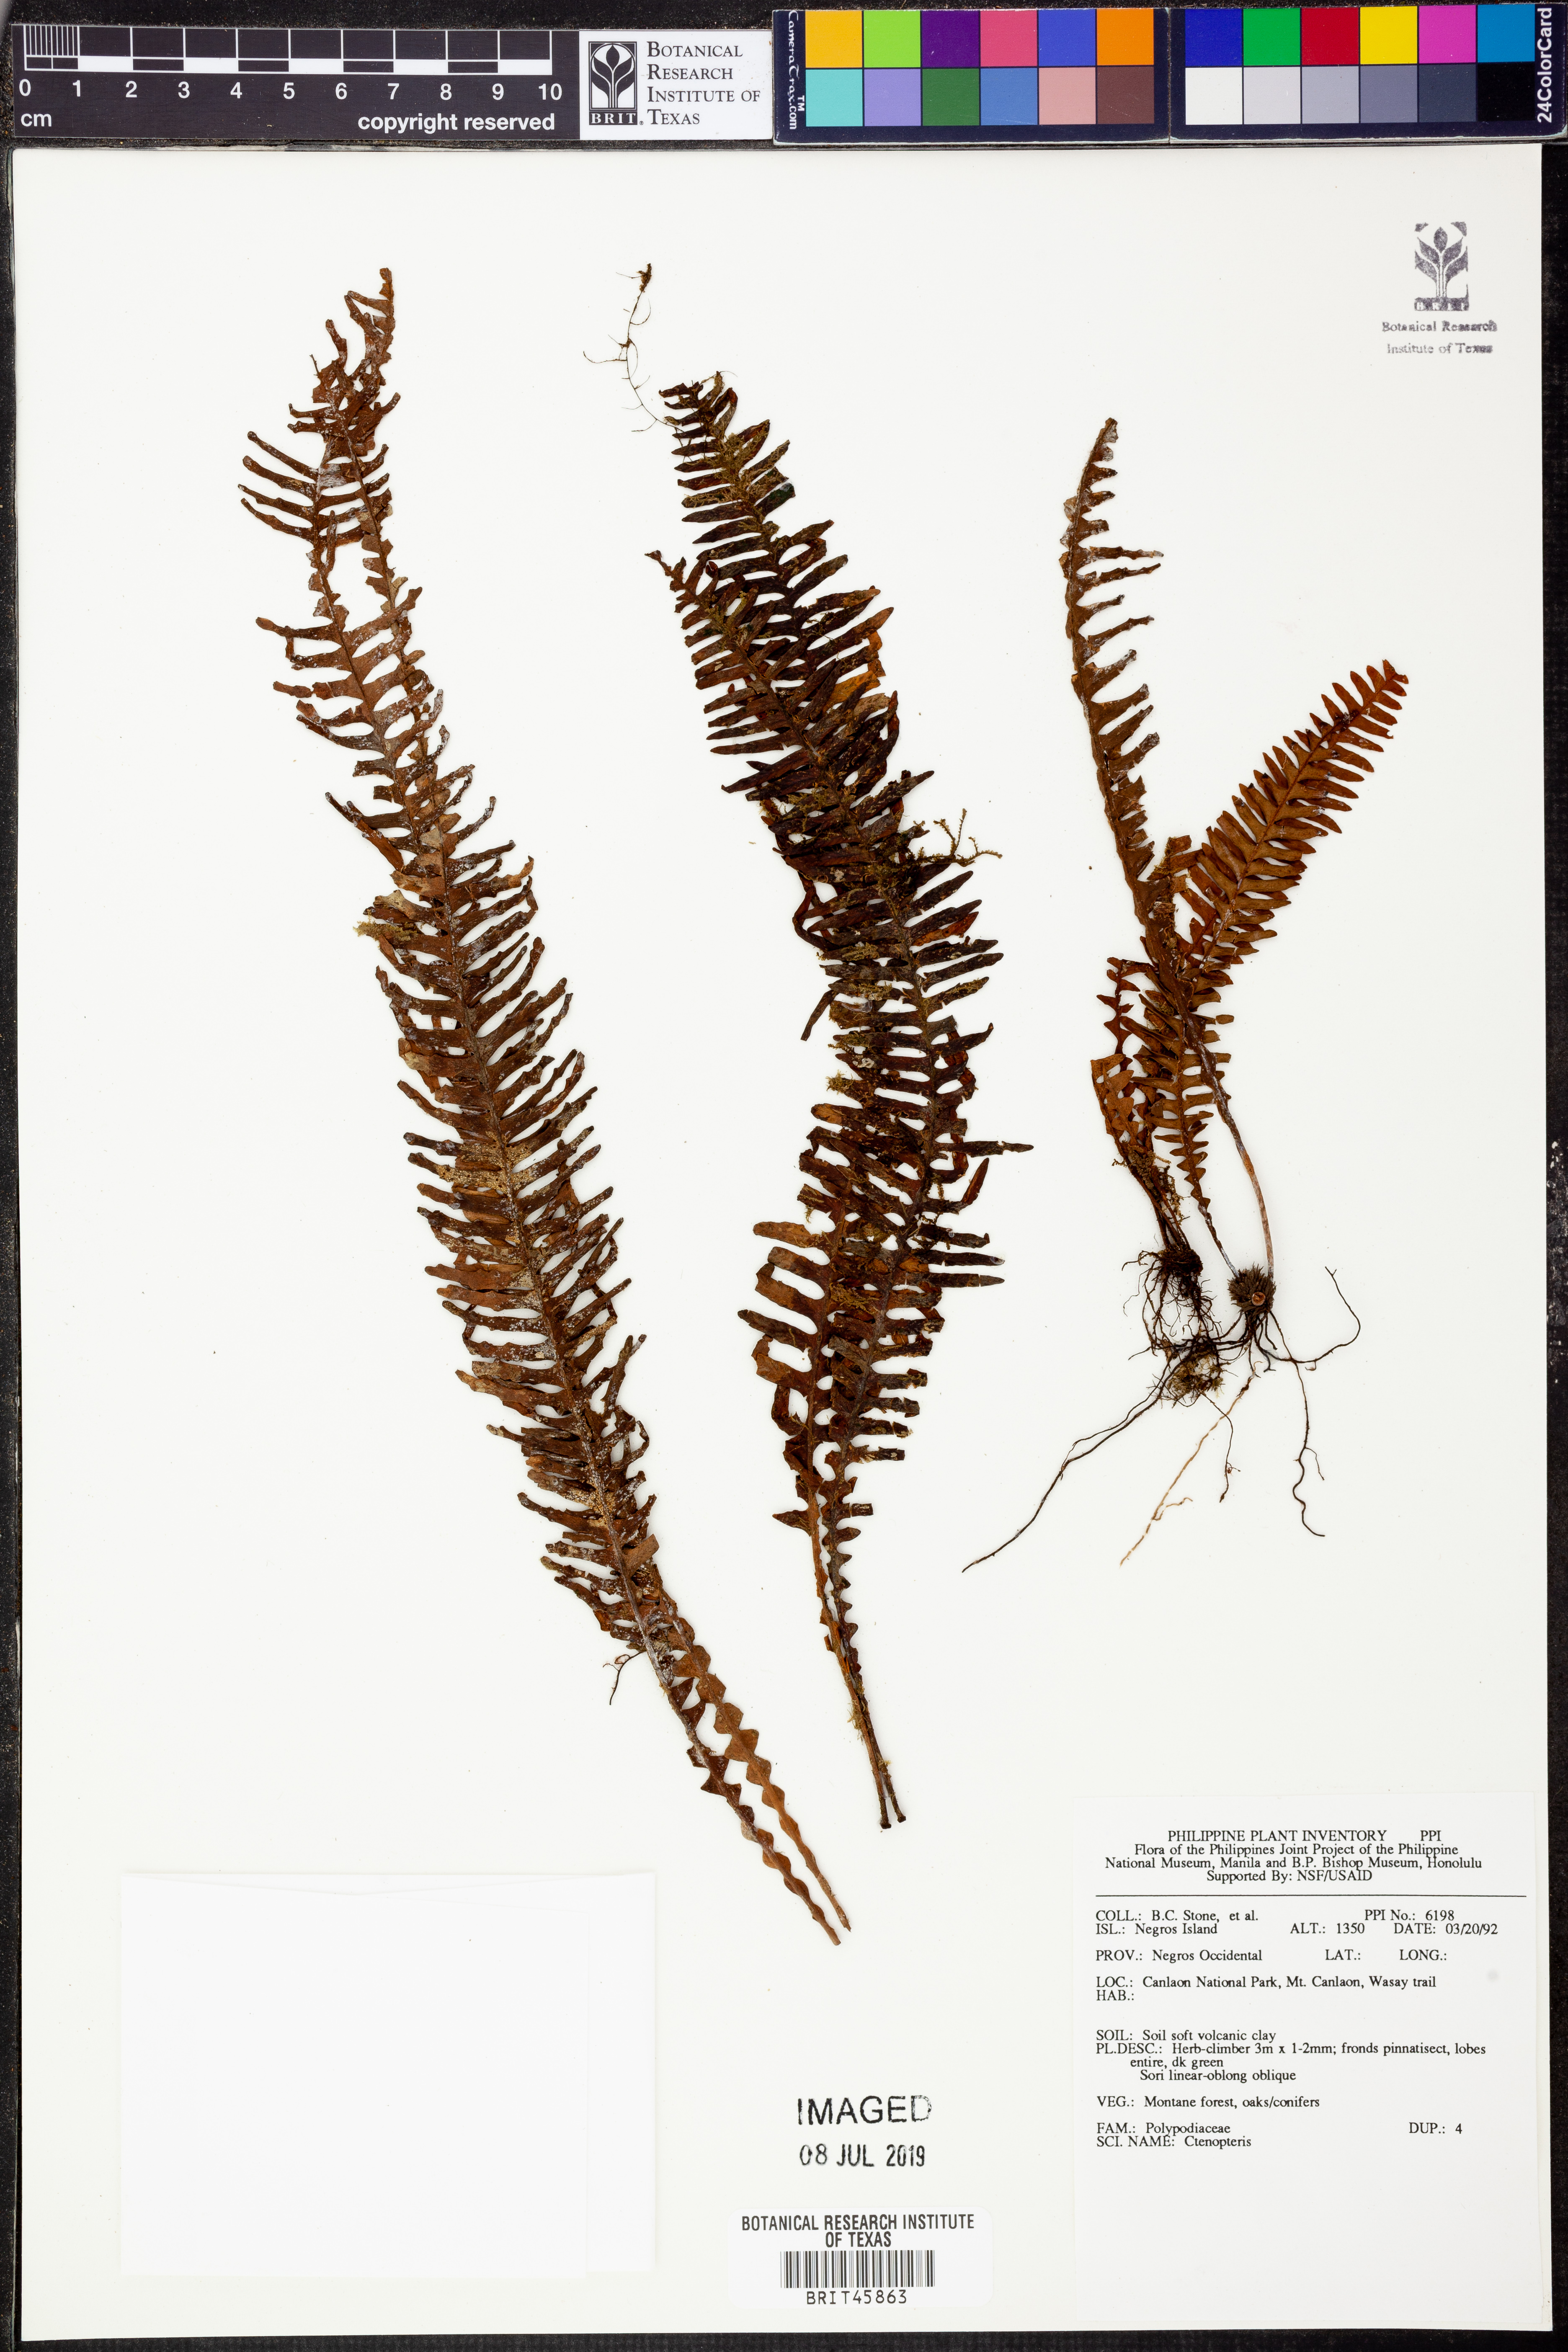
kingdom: Plantae
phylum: Tracheophyta
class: Polypodiopsida
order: Polypodiales
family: Polypodiaceae
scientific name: Polypodiaceae
